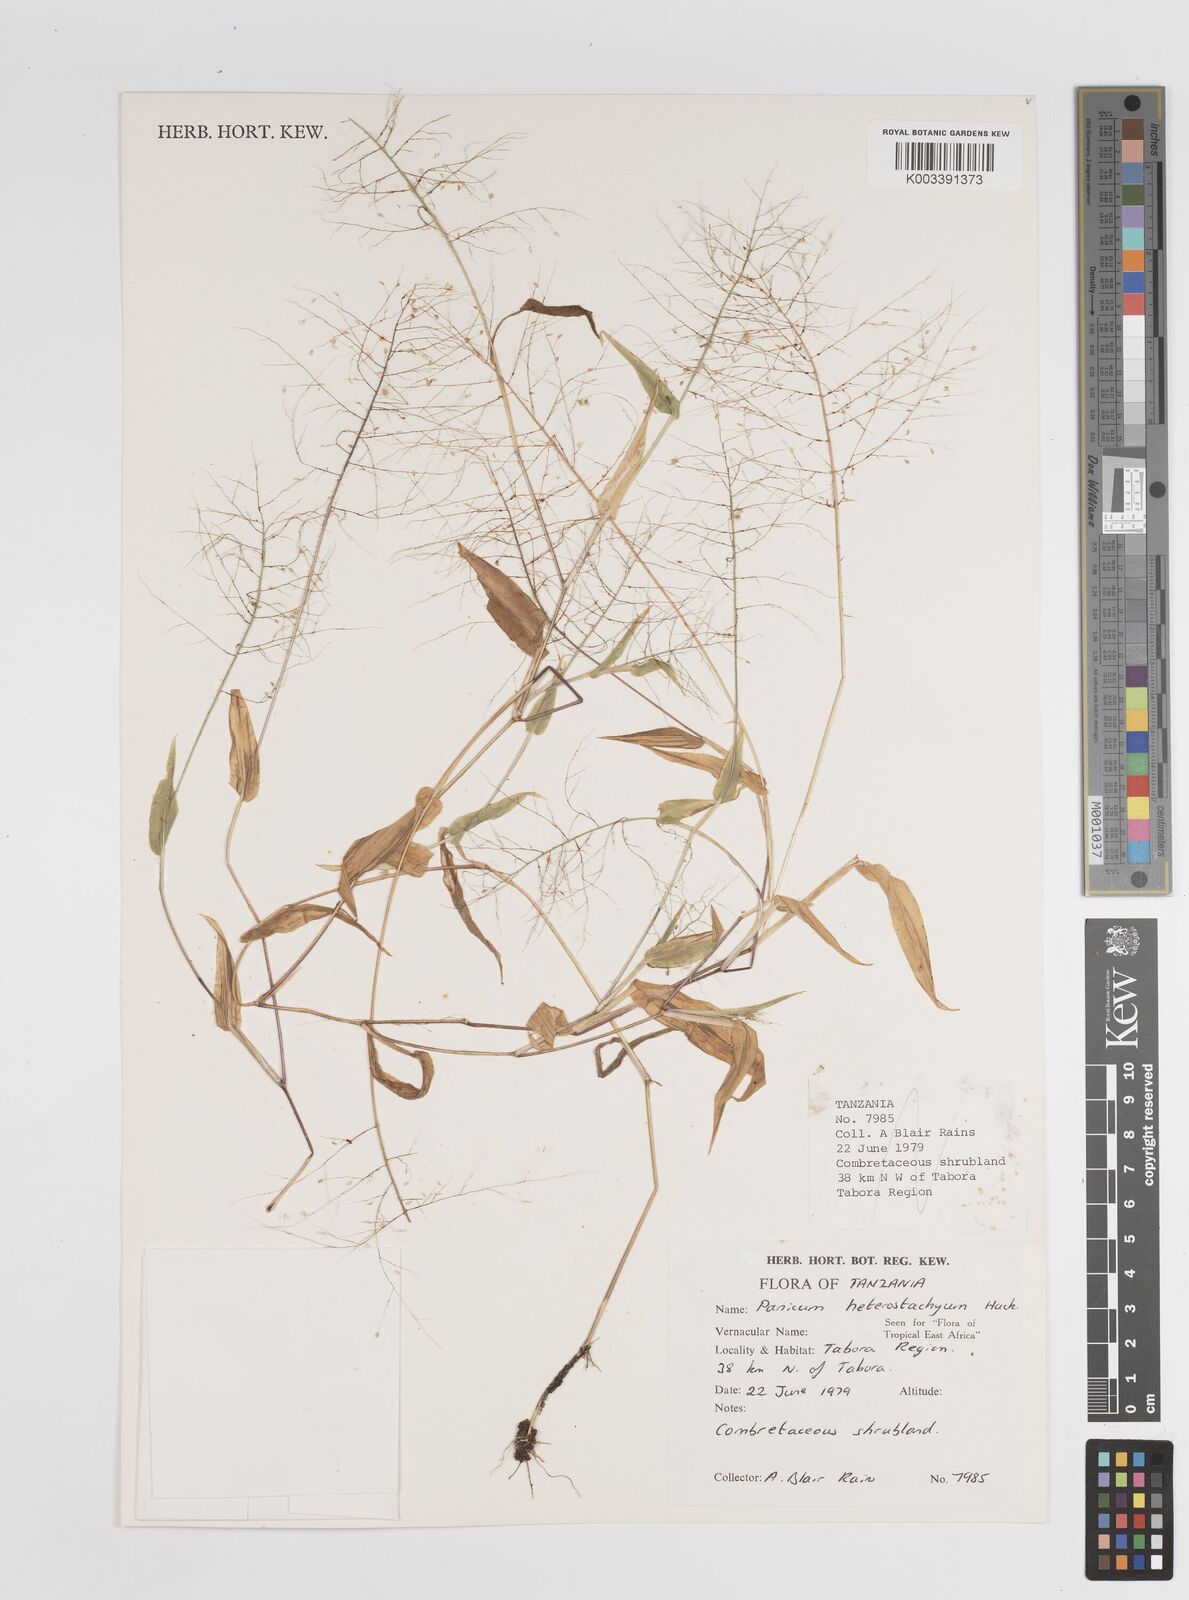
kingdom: Plantae
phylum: Tracheophyta
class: Liliopsida
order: Poales
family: Poaceae
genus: Panicum
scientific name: Panicum hirtum
